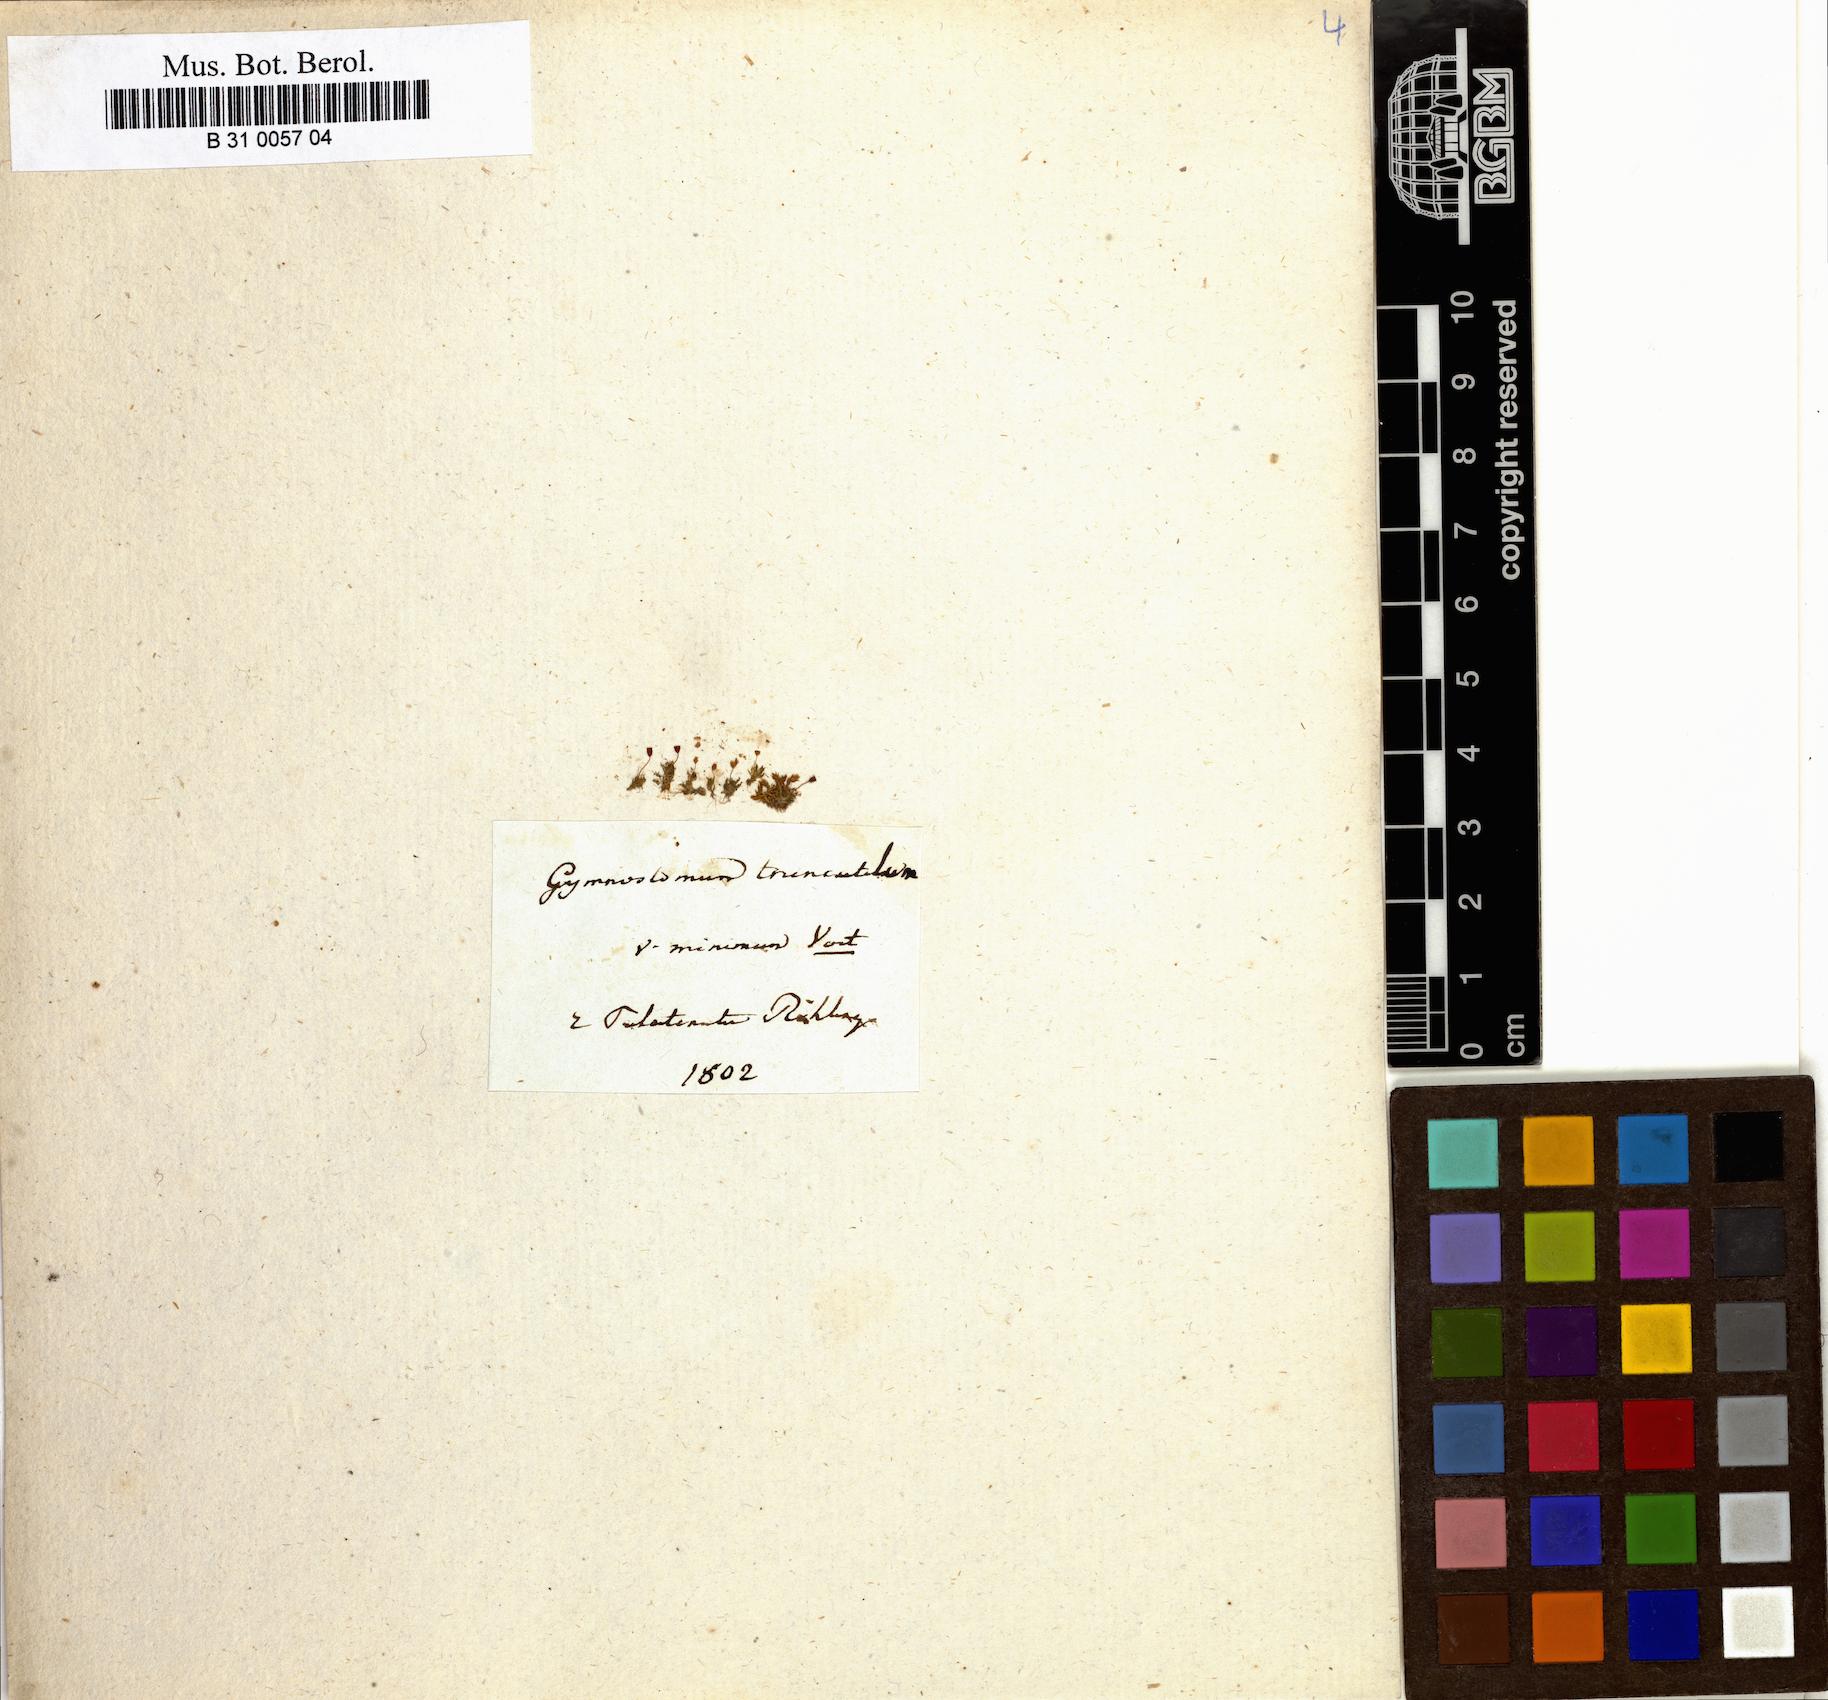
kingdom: Plantae
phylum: Bryophyta
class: Bryopsida
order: Pottiales
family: Pottiaceae
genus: Tortula
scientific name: Tortula truncata
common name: Truncated screw moss
